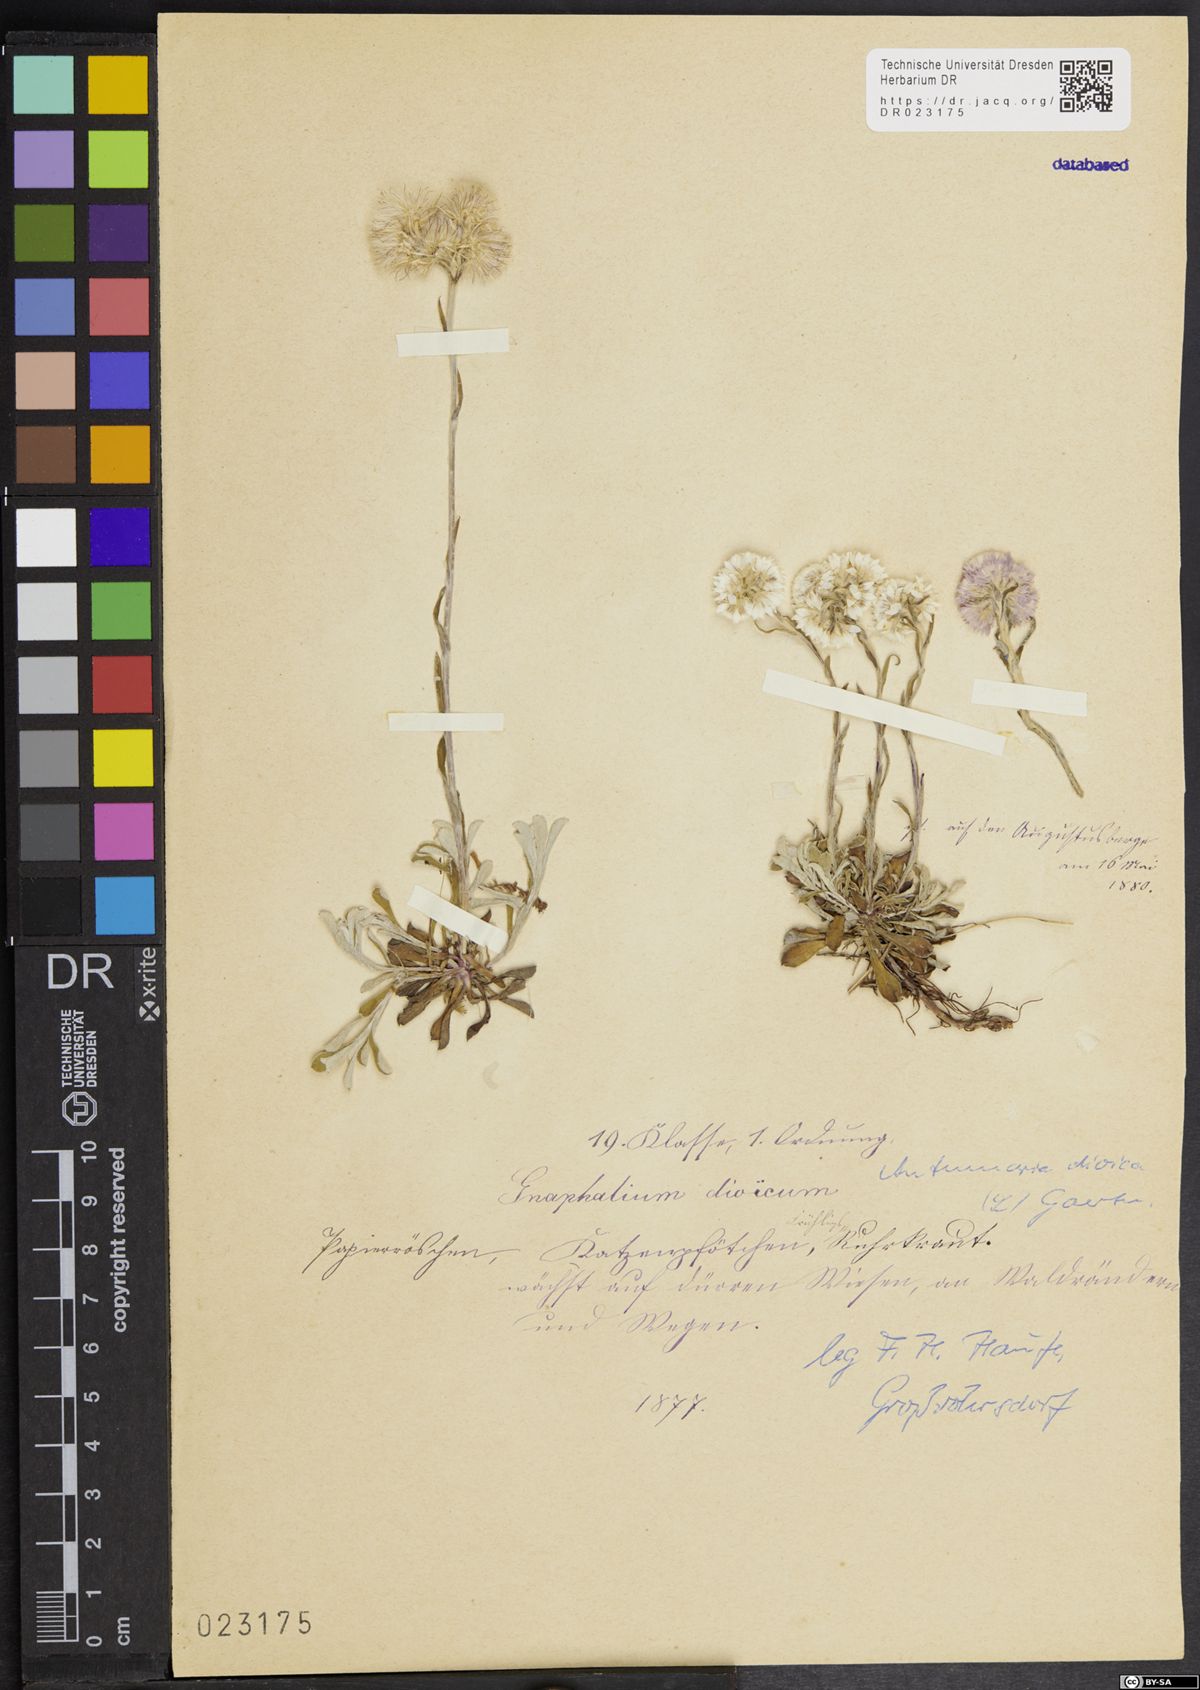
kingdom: Plantae
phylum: Tracheophyta
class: Magnoliopsida
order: Asterales
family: Asteraceae
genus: Antennaria
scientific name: Antennaria dioica
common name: Mountain everlasting
